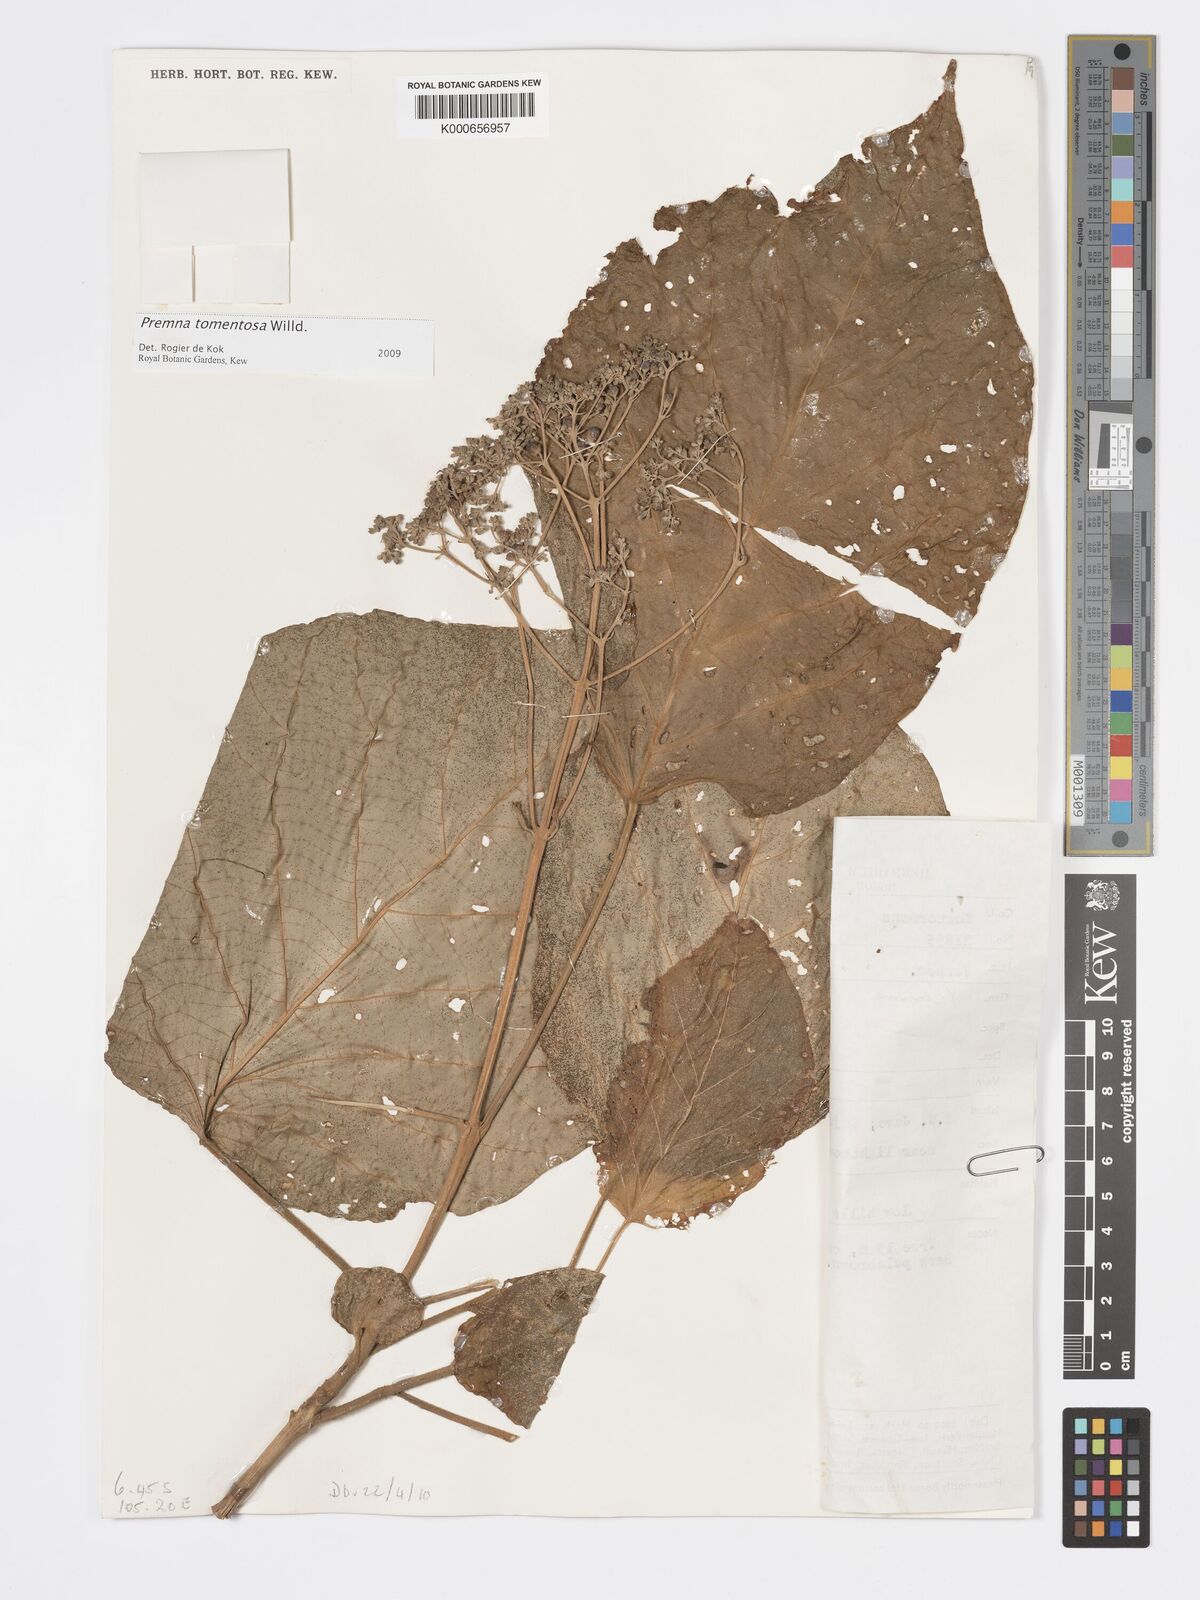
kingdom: Plantae
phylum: Tracheophyta
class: Magnoliopsida
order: Lamiales
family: Lamiaceae
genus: Premna
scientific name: Premna tomentosa
